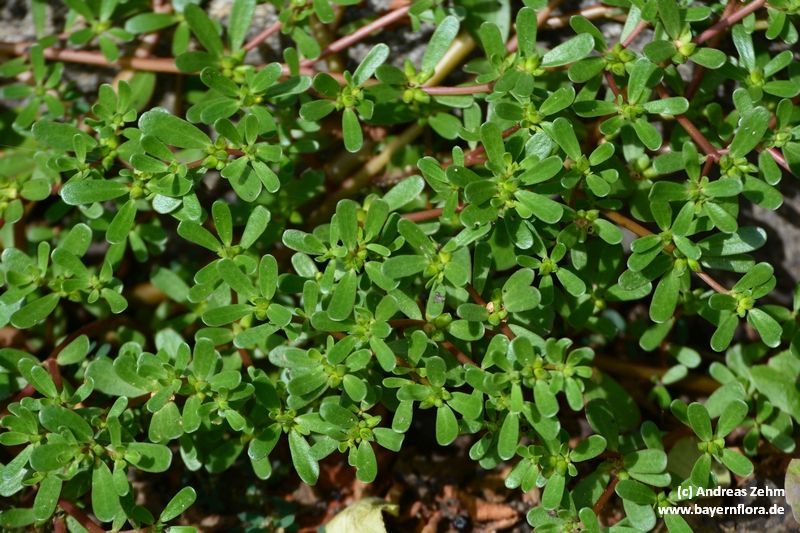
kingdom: Plantae
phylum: Tracheophyta
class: Magnoliopsida
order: Caryophyllales
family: Portulacaceae
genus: Portulaca
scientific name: Portulaca oleracea
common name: Common purslane
